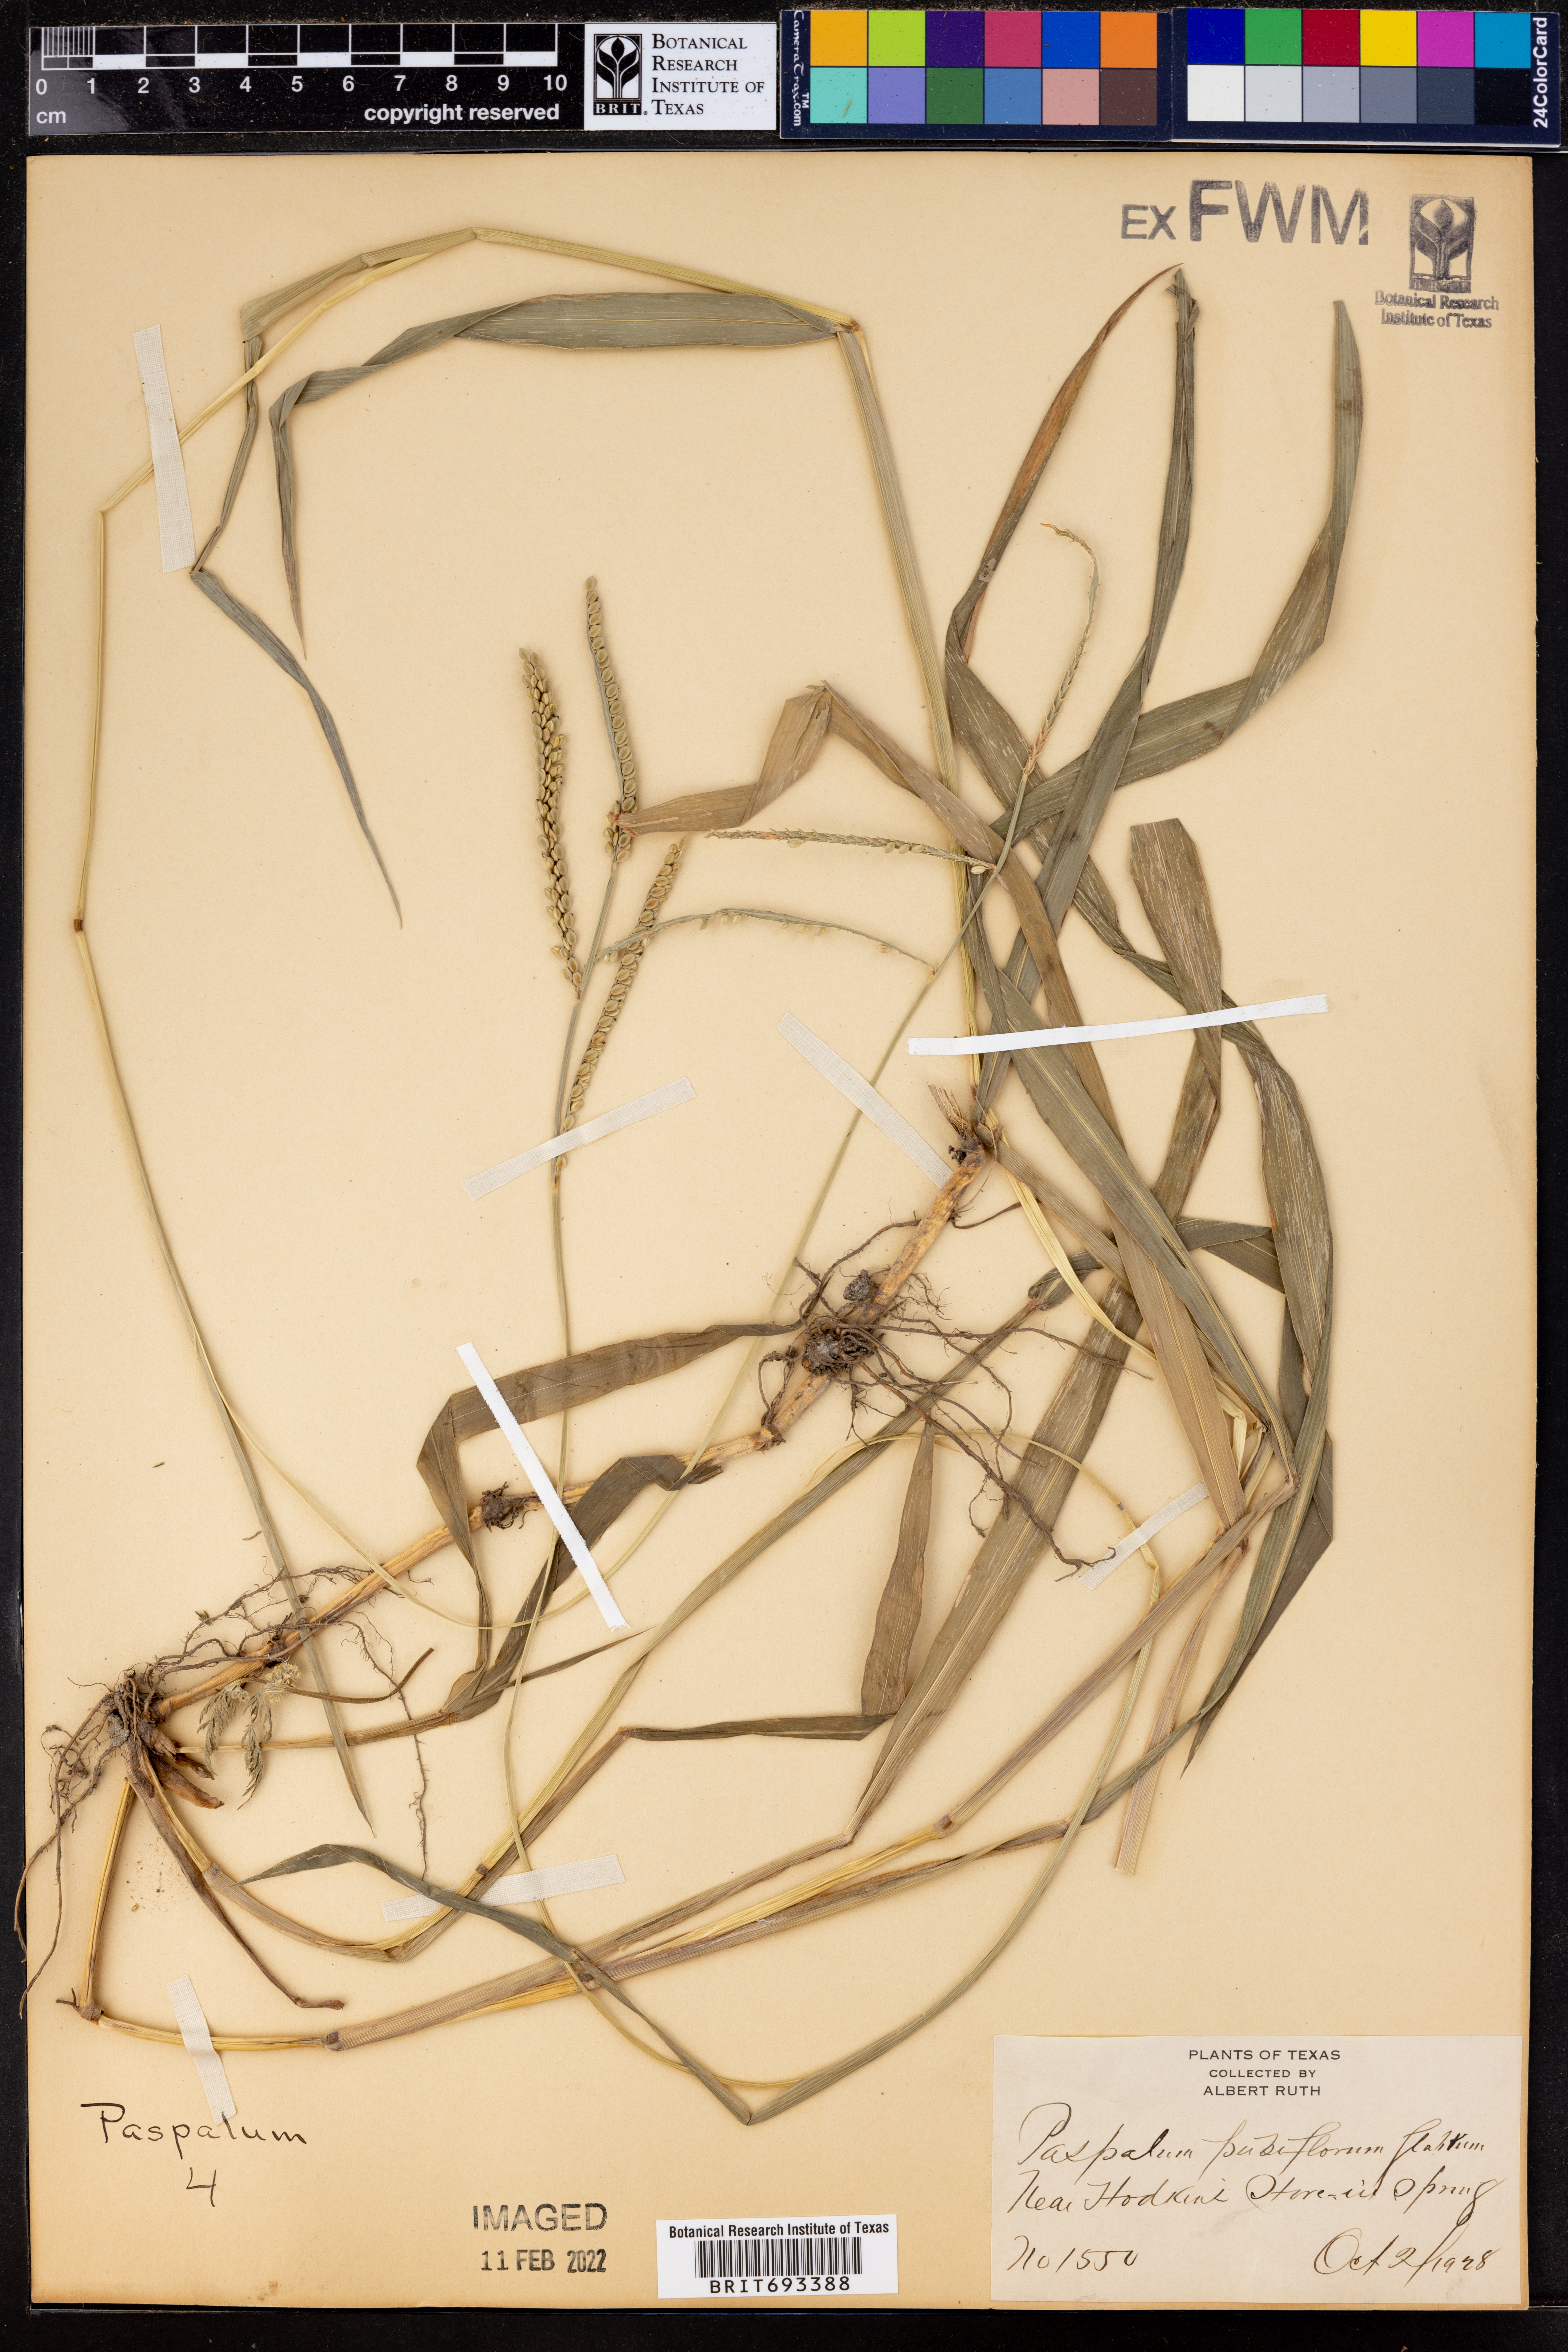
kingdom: Plantae
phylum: Tracheophyta
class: Liliopsida
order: Poales
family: Poaceae
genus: Paspalum
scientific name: Paspalum pubiflorum
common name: Hairy-seed paspalum
